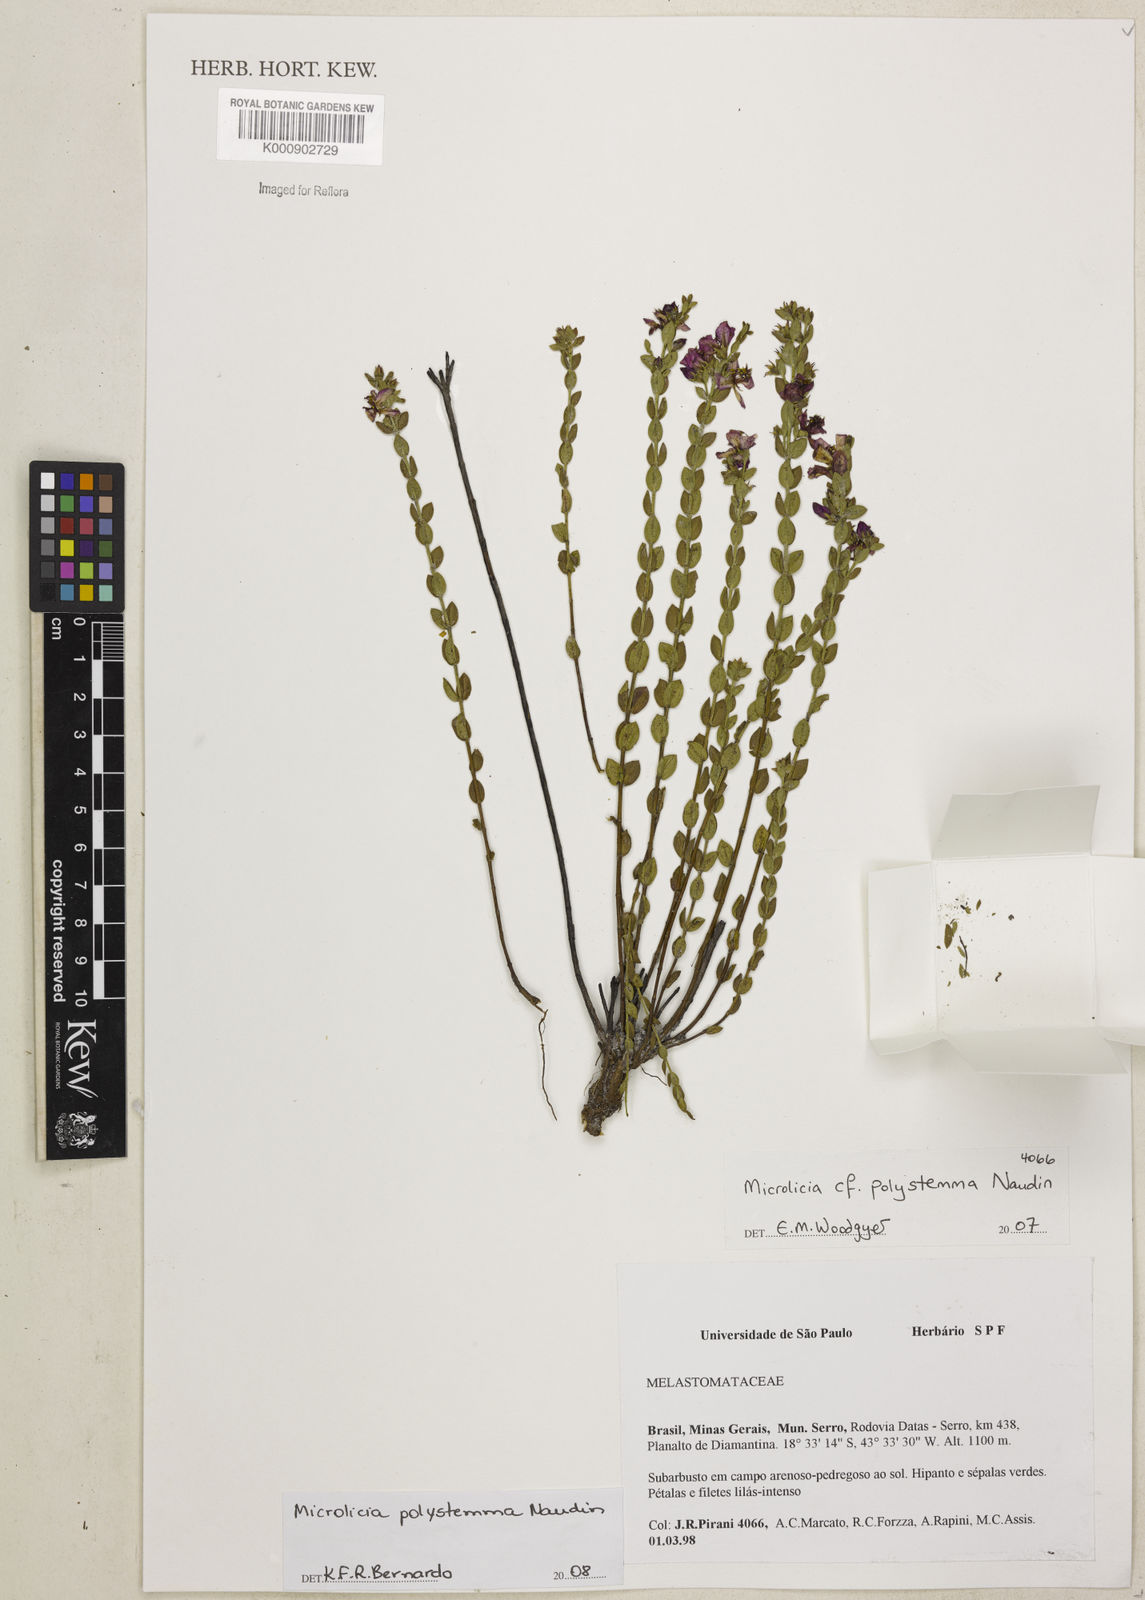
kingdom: Plantae
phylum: Tracheophyta
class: Magnoliopsida
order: Myrtales
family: Melastomataceae
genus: Microlicia
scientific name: Microlicia polystemma
